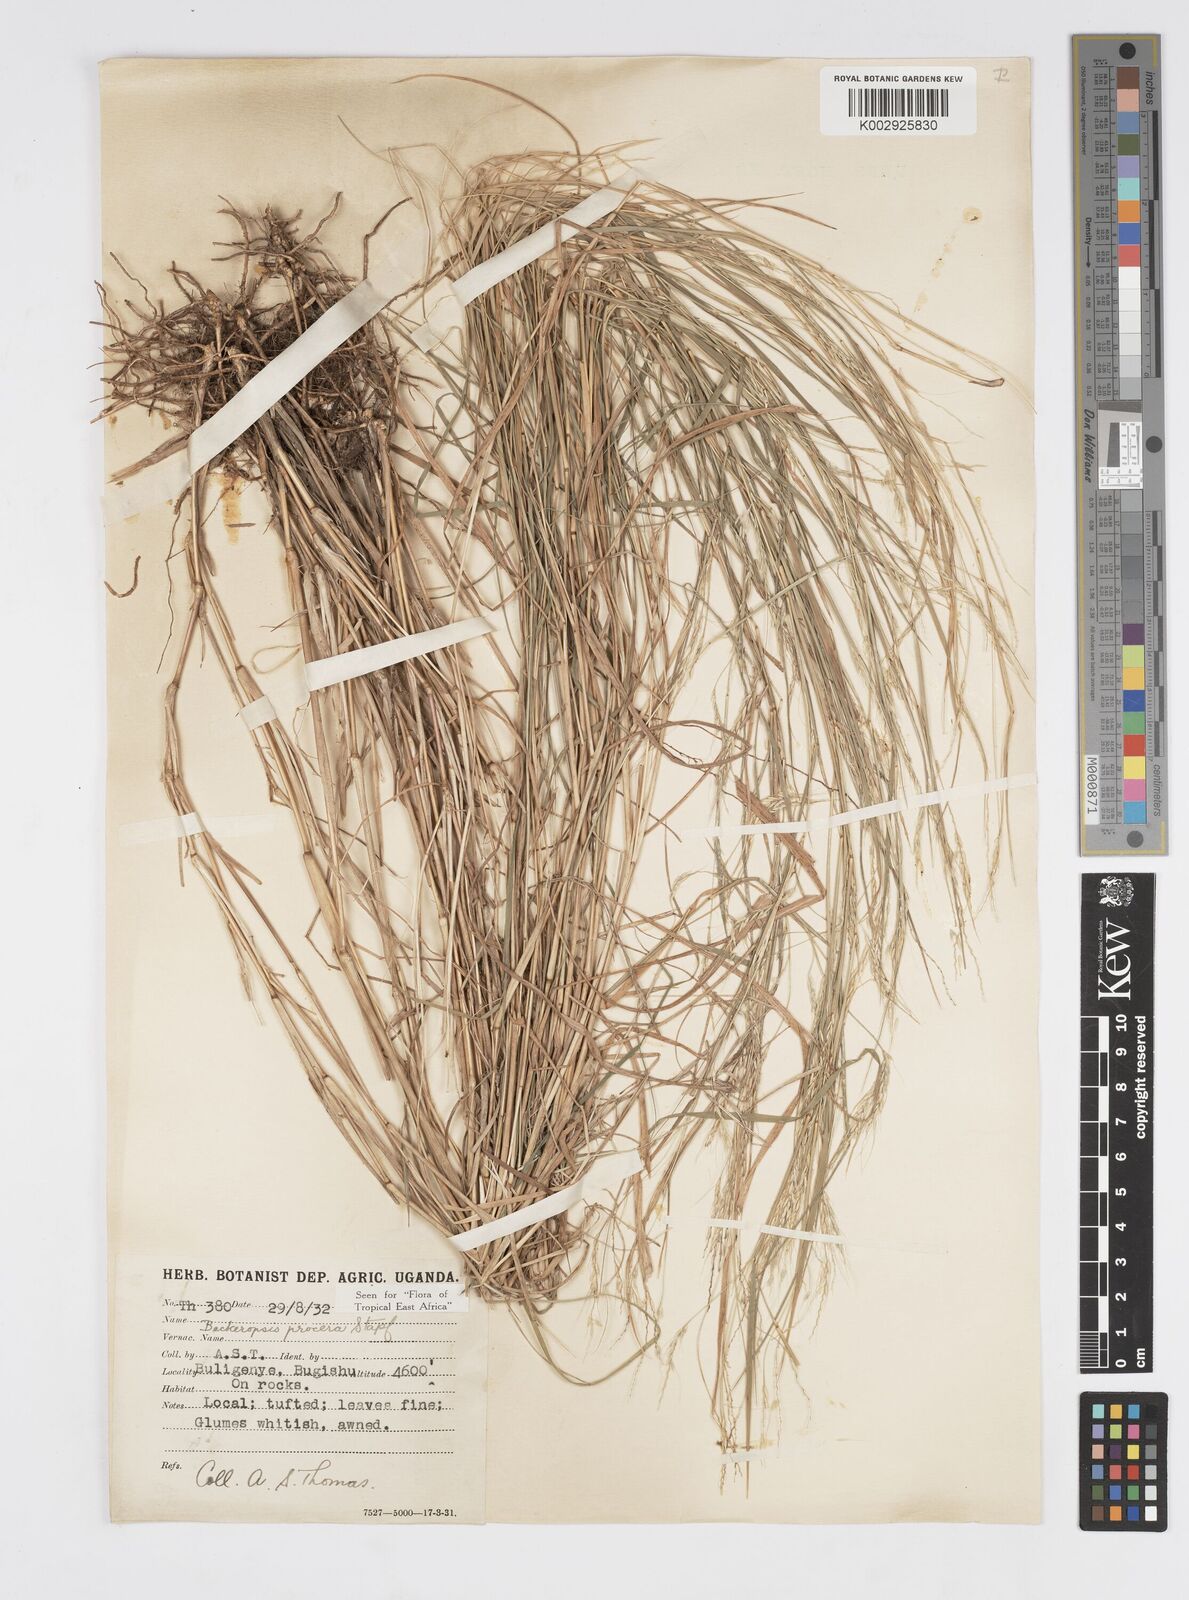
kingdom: Plantae
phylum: Tracheophyta
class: Liliopsida
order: Poales
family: Poaceae
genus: Cenchrus
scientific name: Cenchrus procerus
